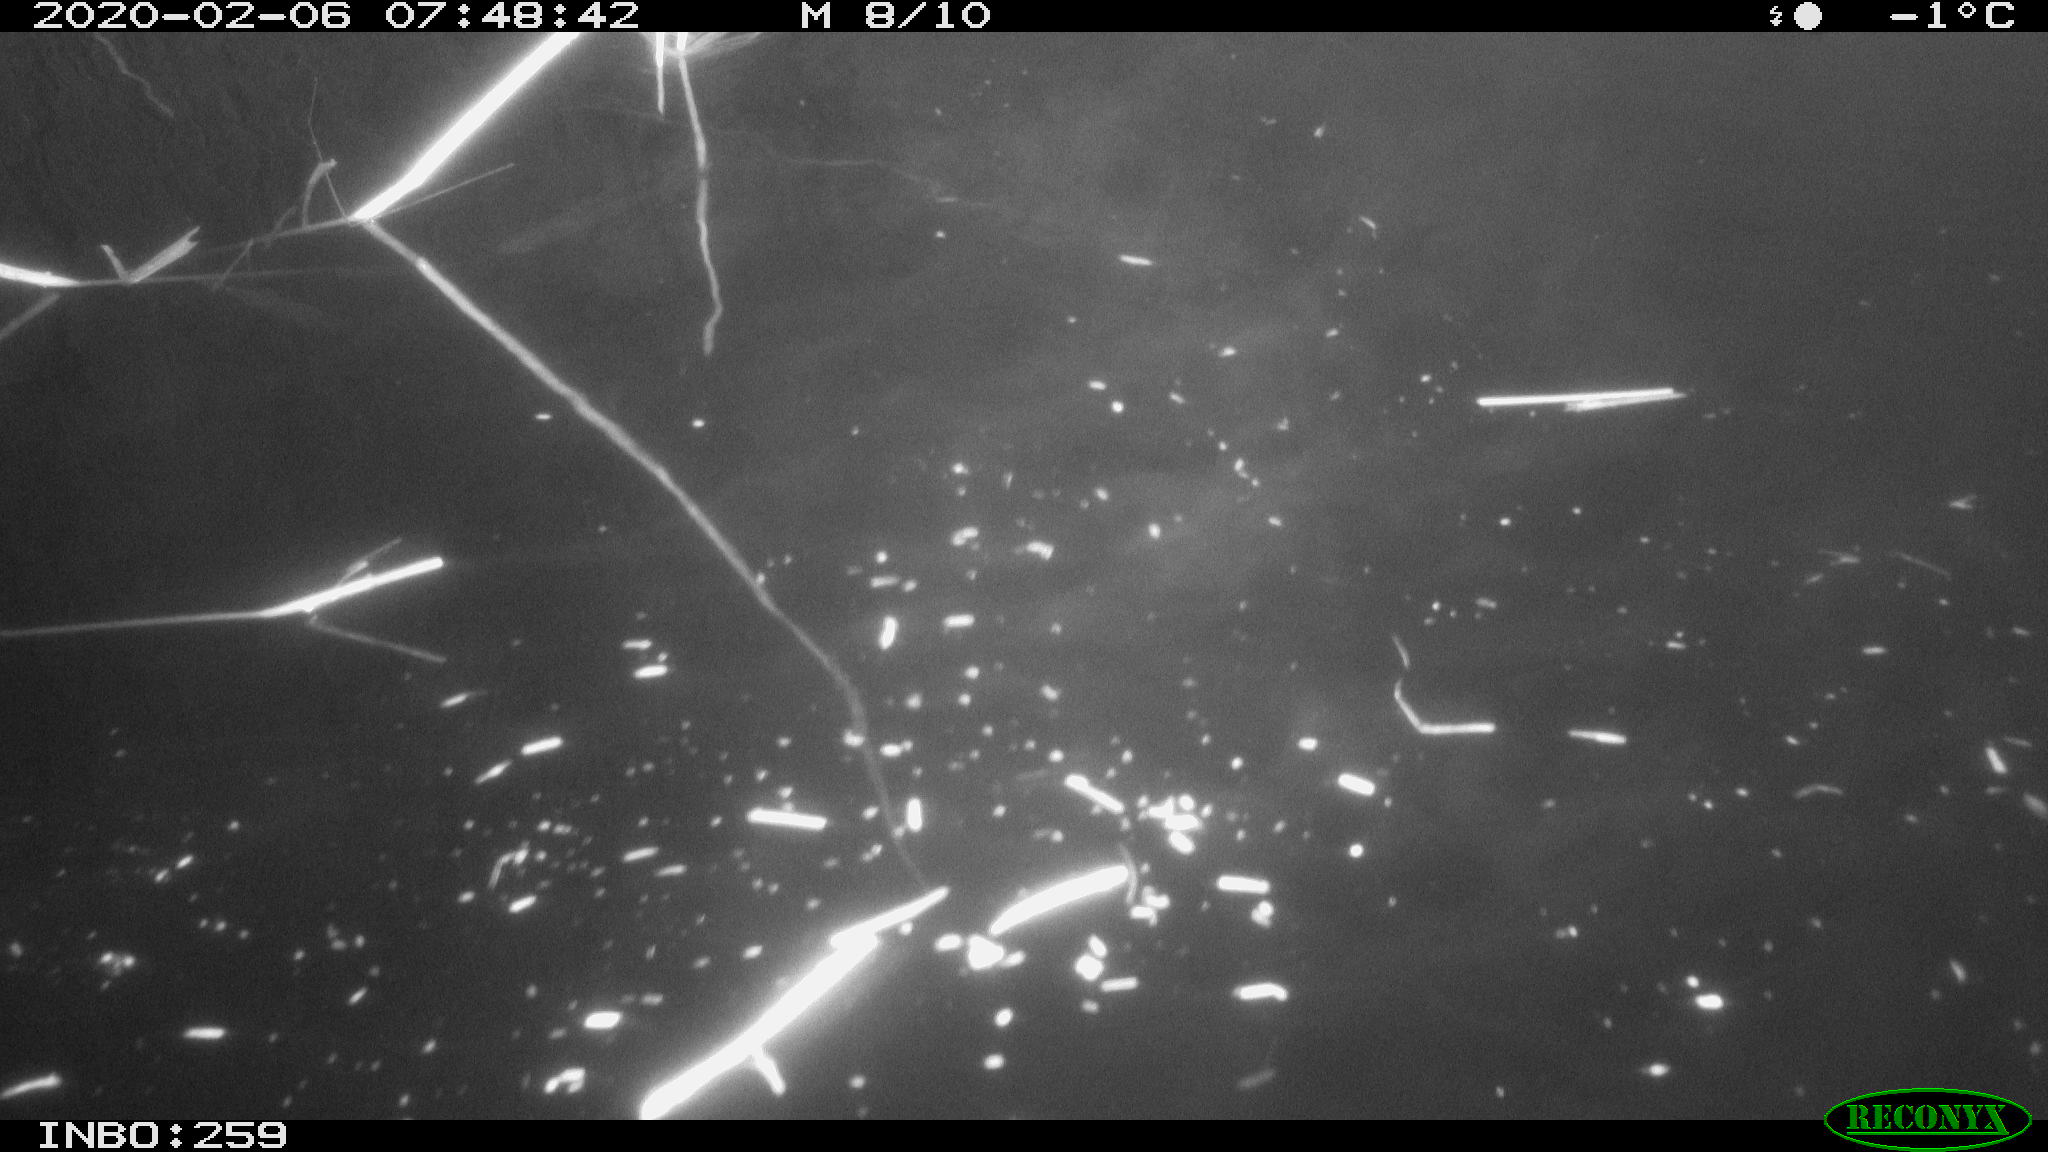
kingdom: Animalia
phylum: Chordata
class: Aves
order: Gruiformes
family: Rallidae
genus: Gallinula
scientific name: Gallinula chloropus
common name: Common moorhen
